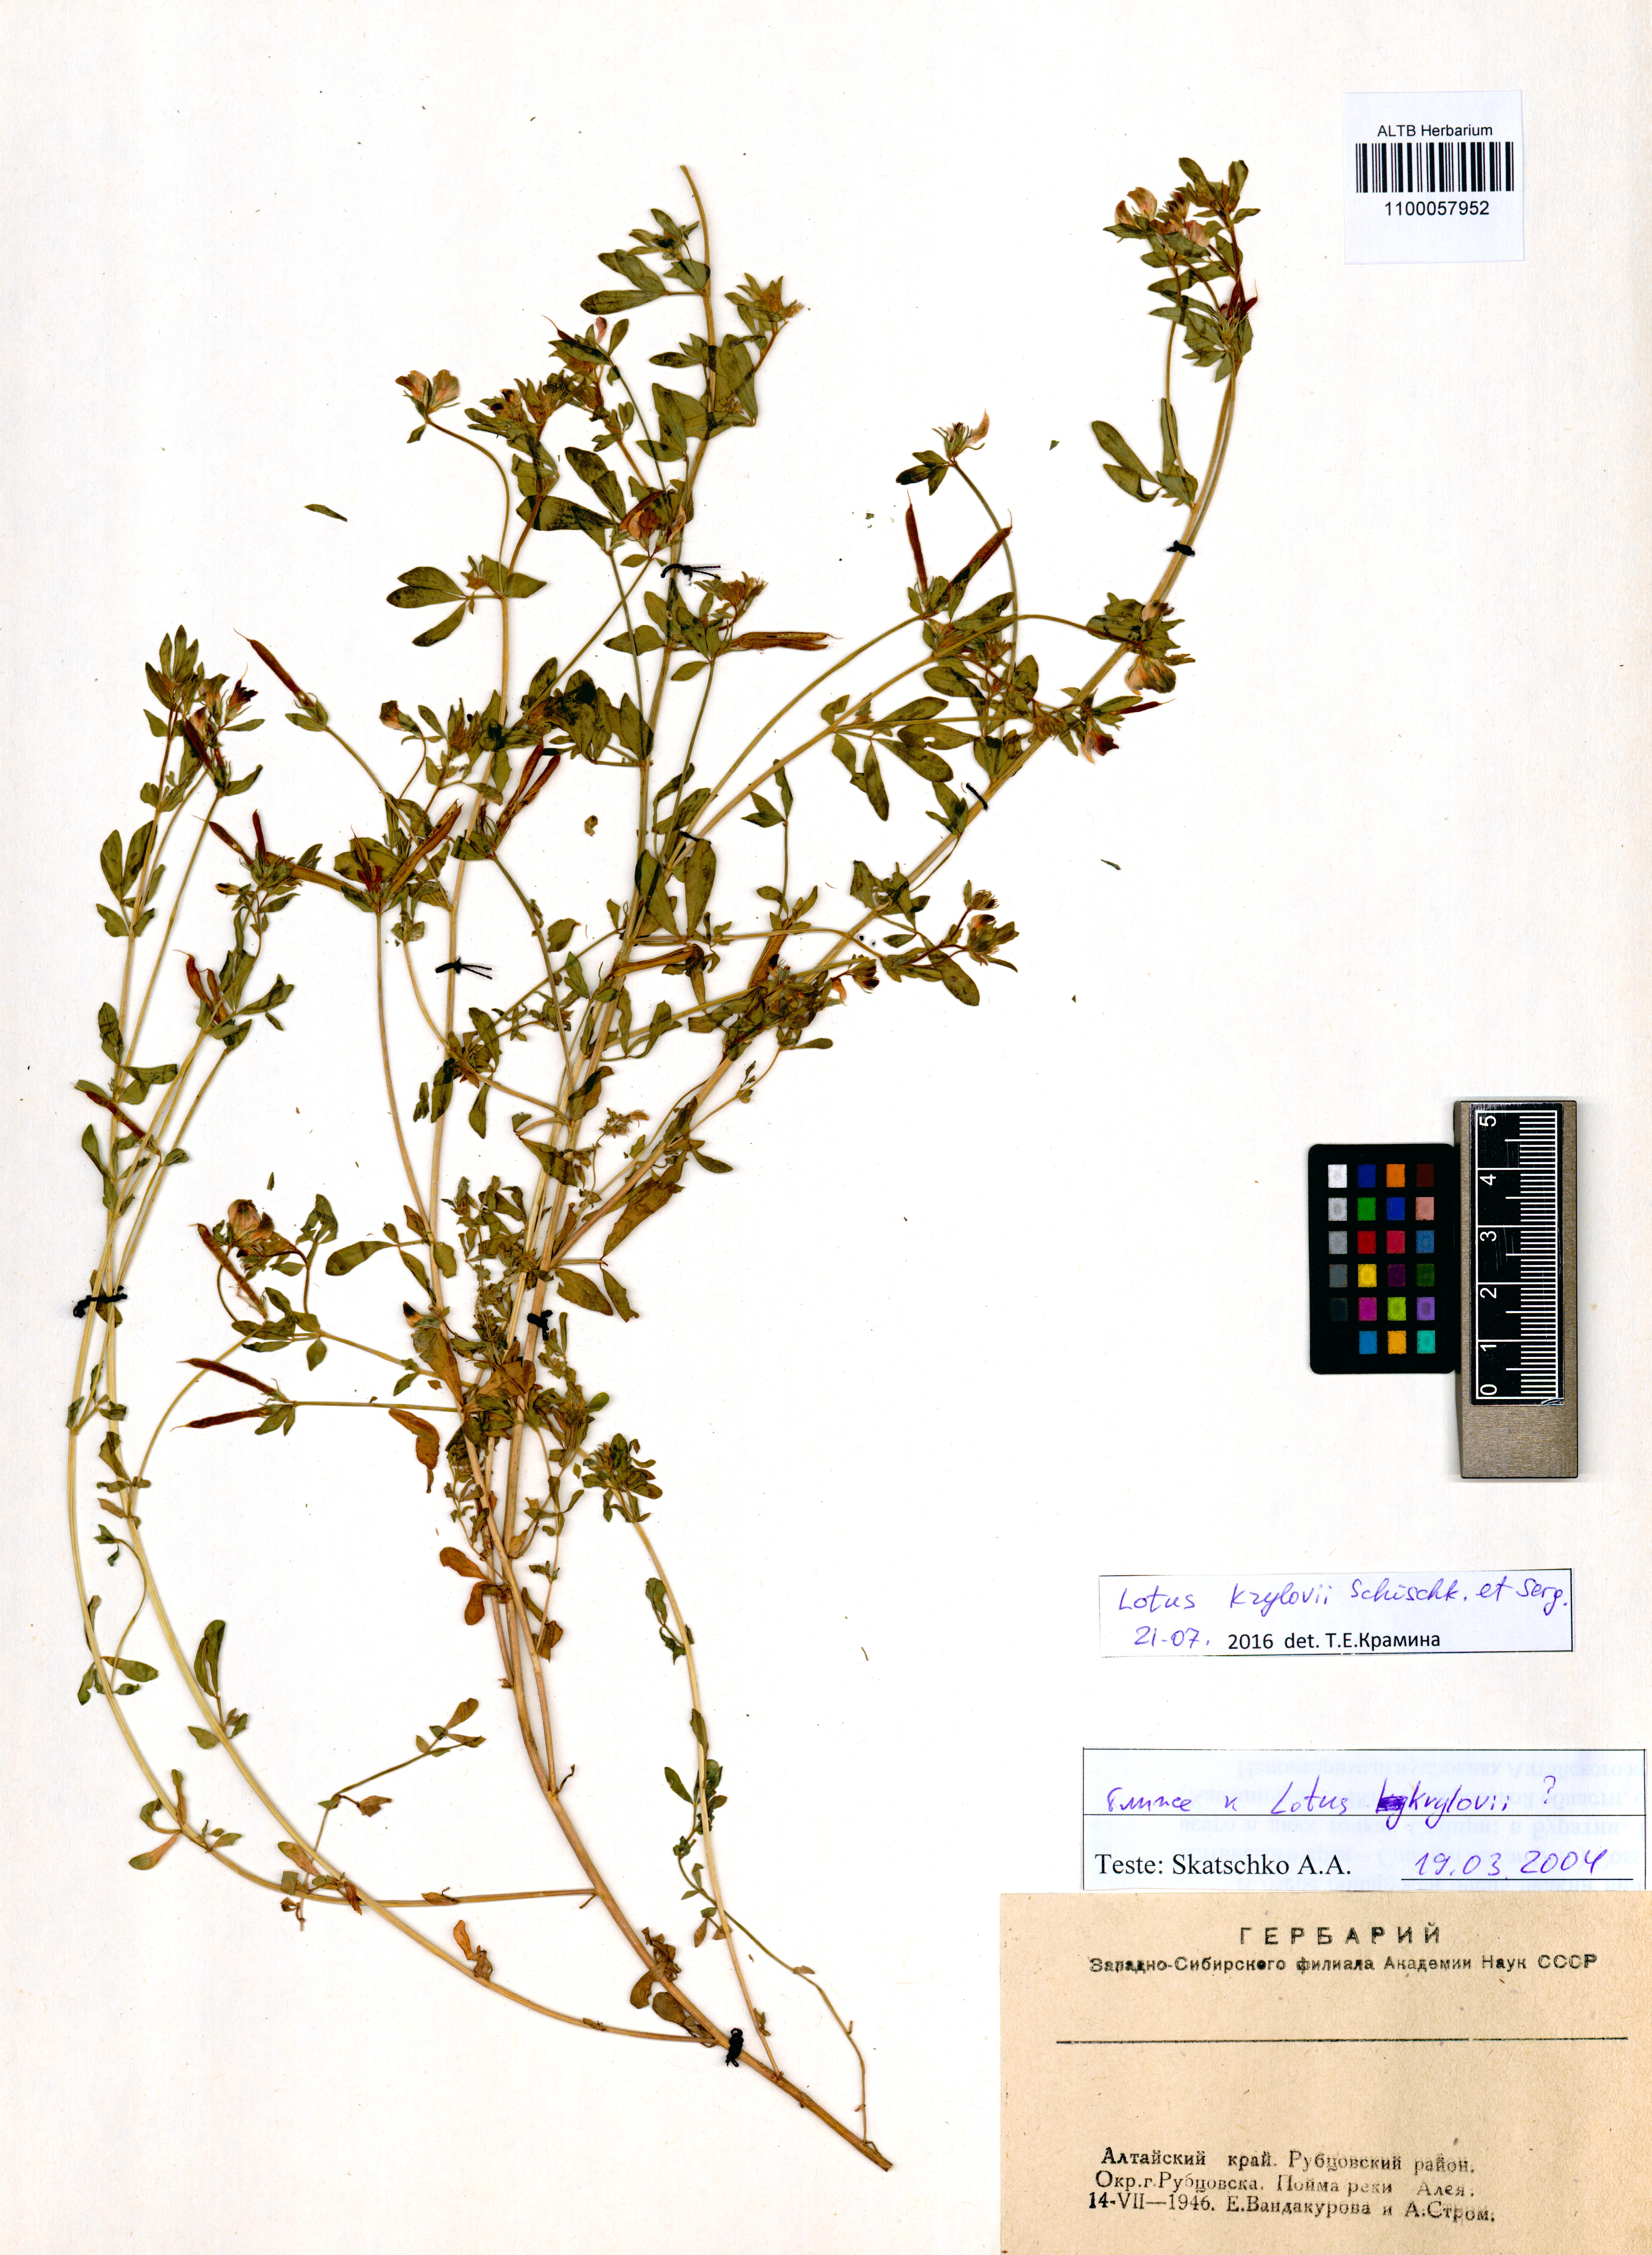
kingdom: Plantae
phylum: Tracheophyta
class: Magnoliopsida
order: Fabales
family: Fabaceae
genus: Lotus
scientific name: Lotus krylovii
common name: Krylov's bird's-foot trefoil
